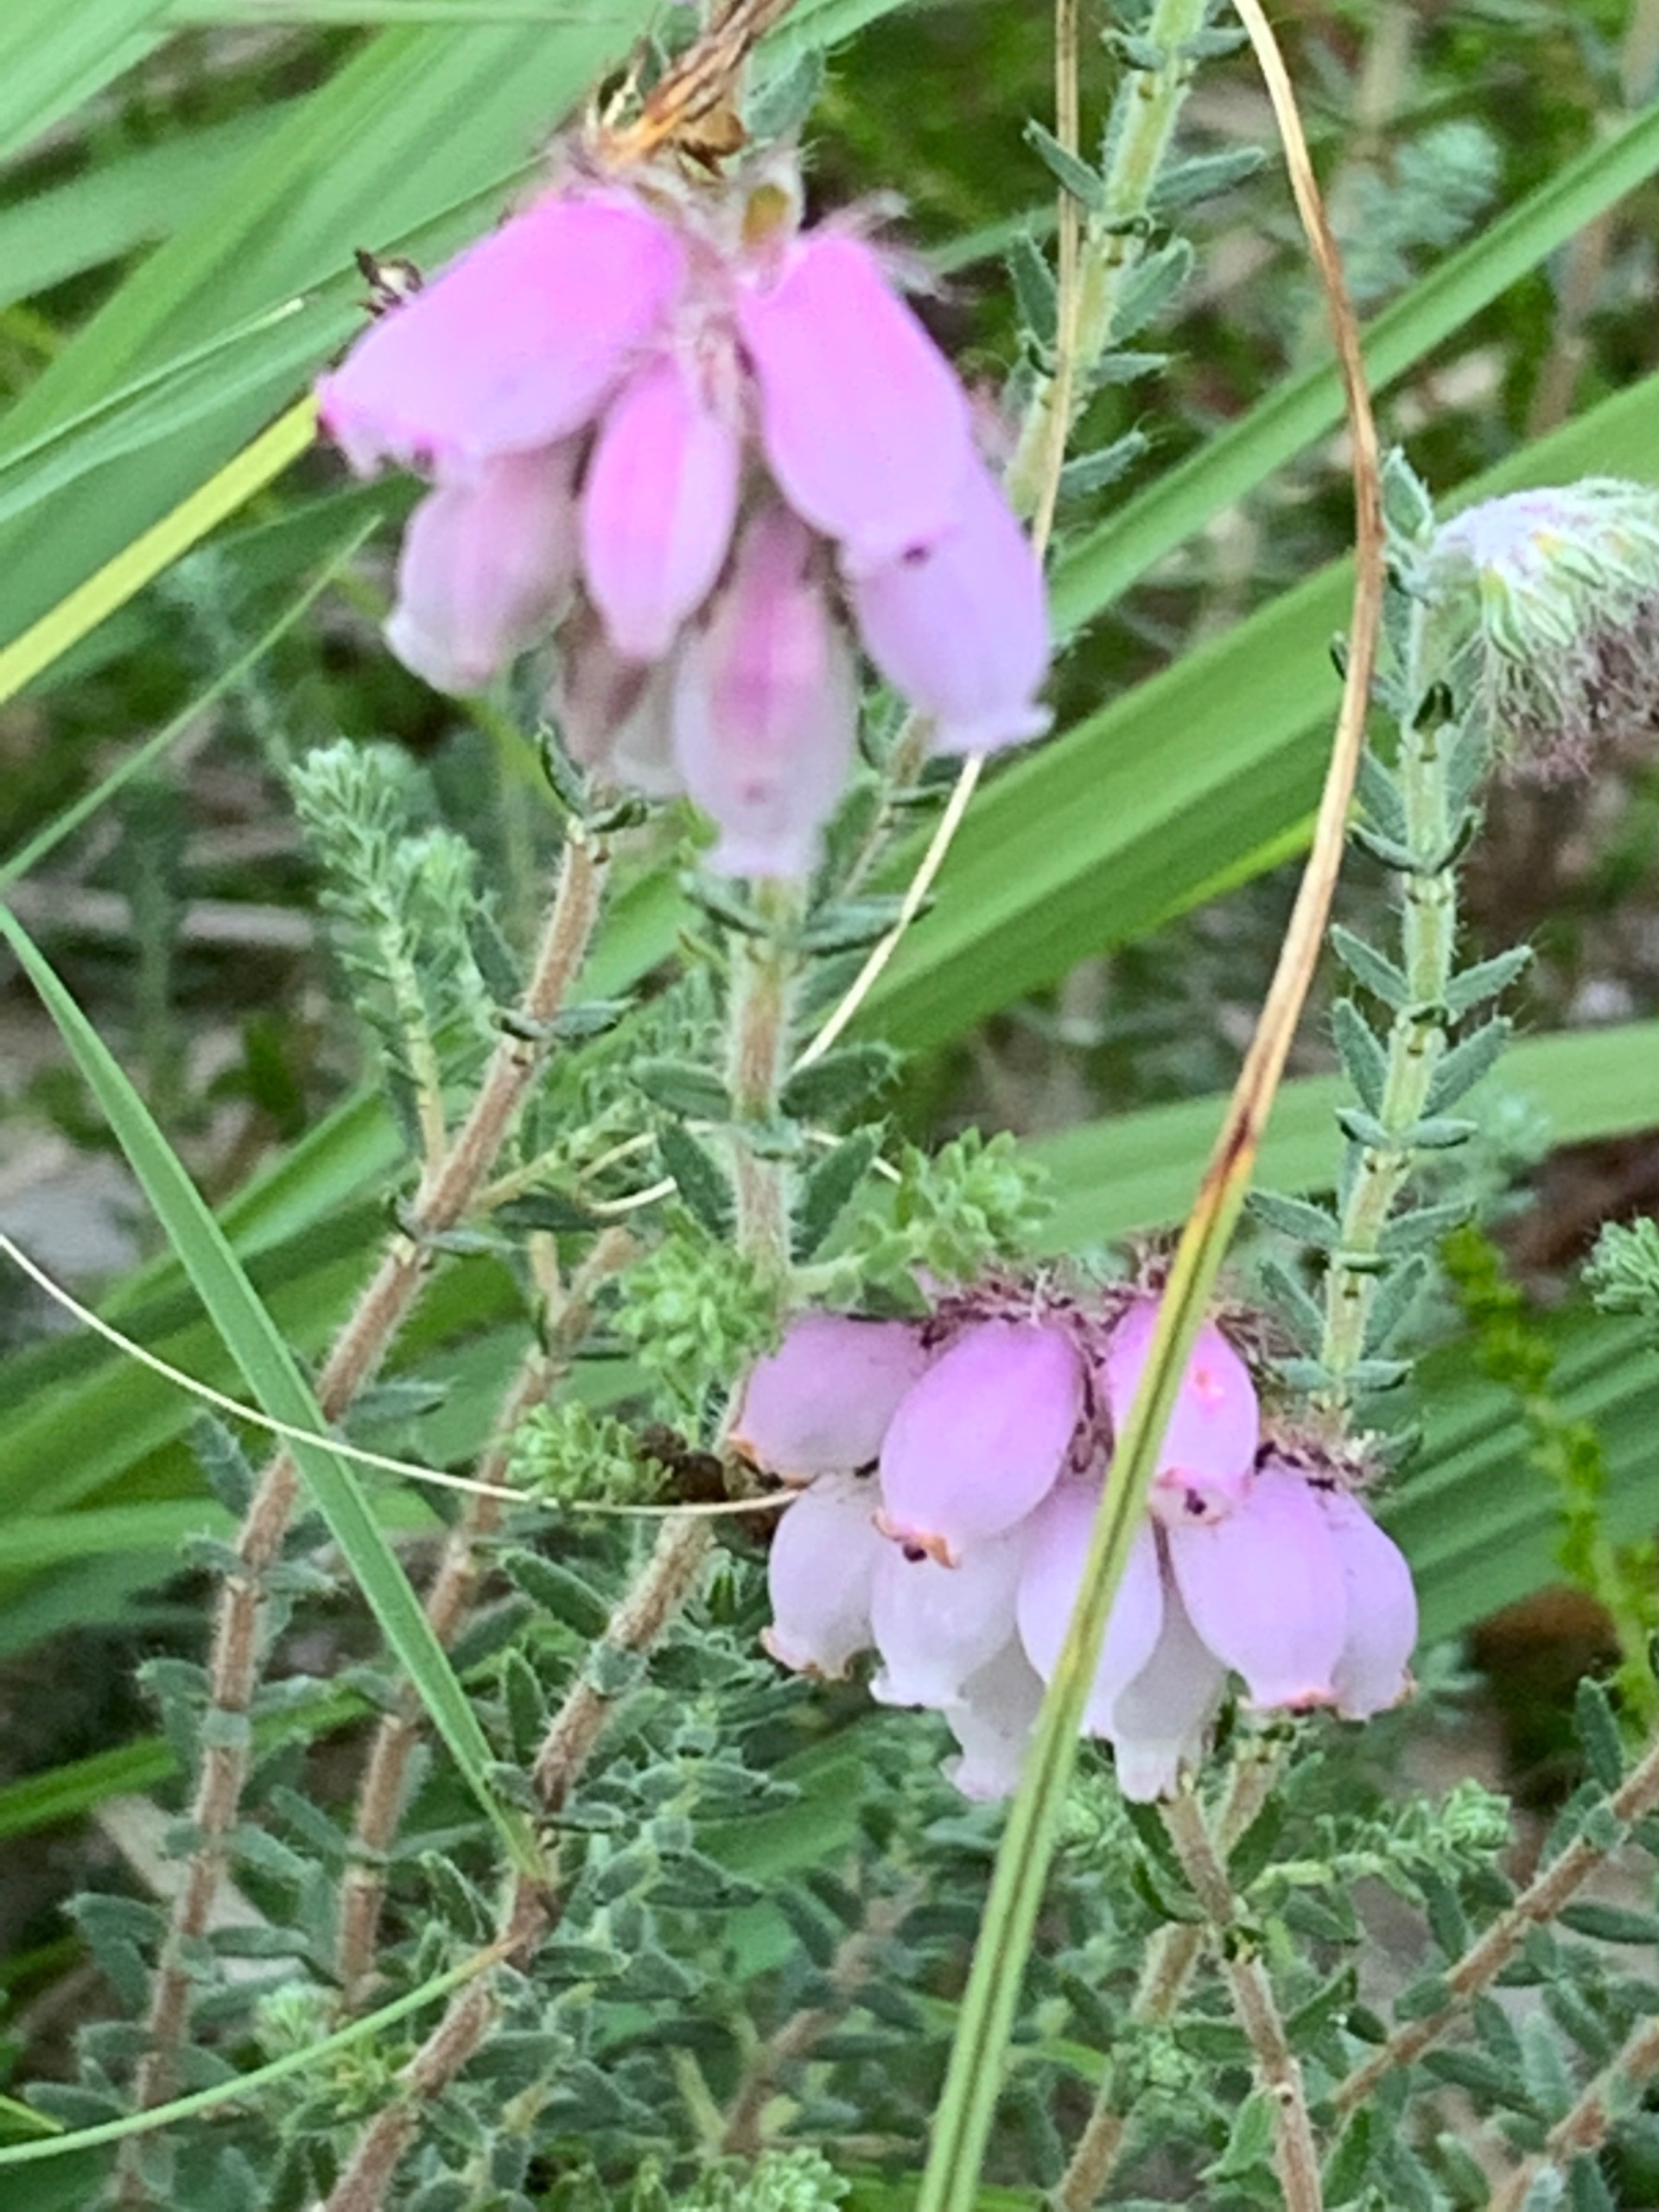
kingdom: Plantae
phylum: Tracheophyta
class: Magnoliopsida
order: Ericales
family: Ericaceae
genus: Erica
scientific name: Erica tetralix
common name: Klokkelyng
